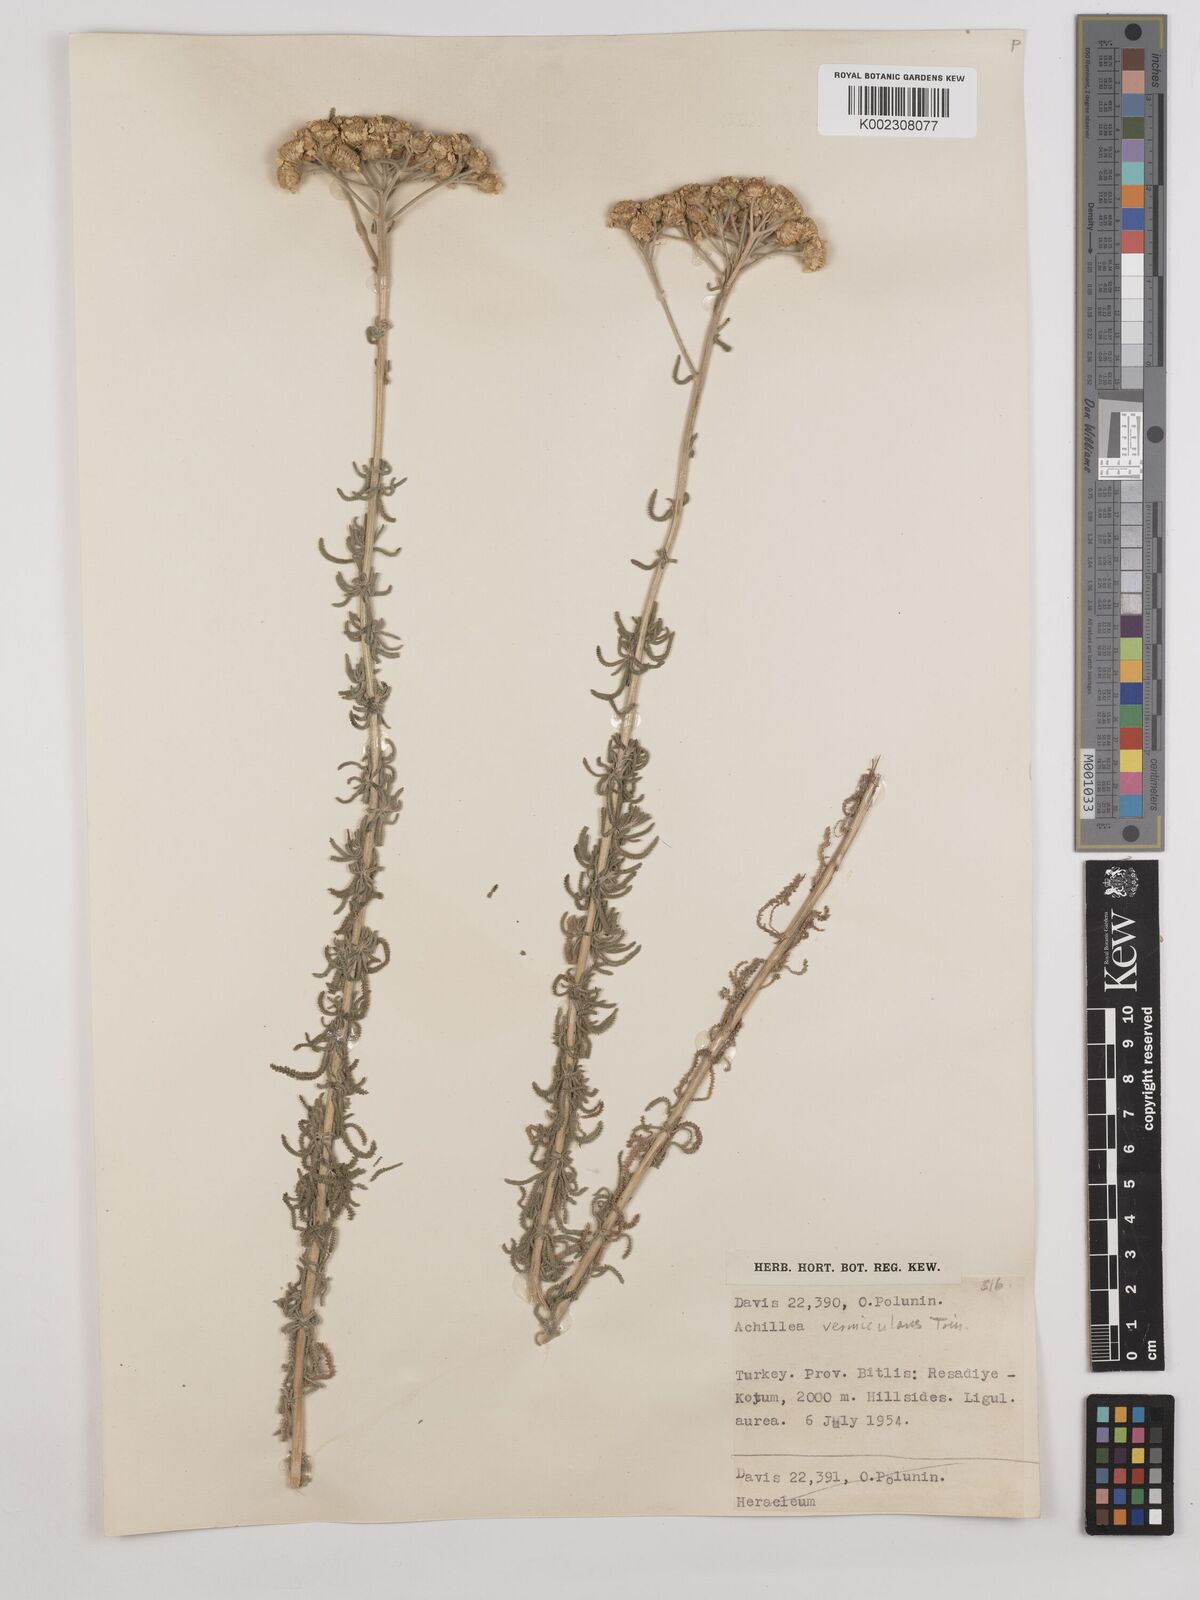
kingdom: Plantae
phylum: Tracheophyta
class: Magnoliopsida
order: Asterales
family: Asteraceae
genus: Achillea
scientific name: Achillea vermicularis
